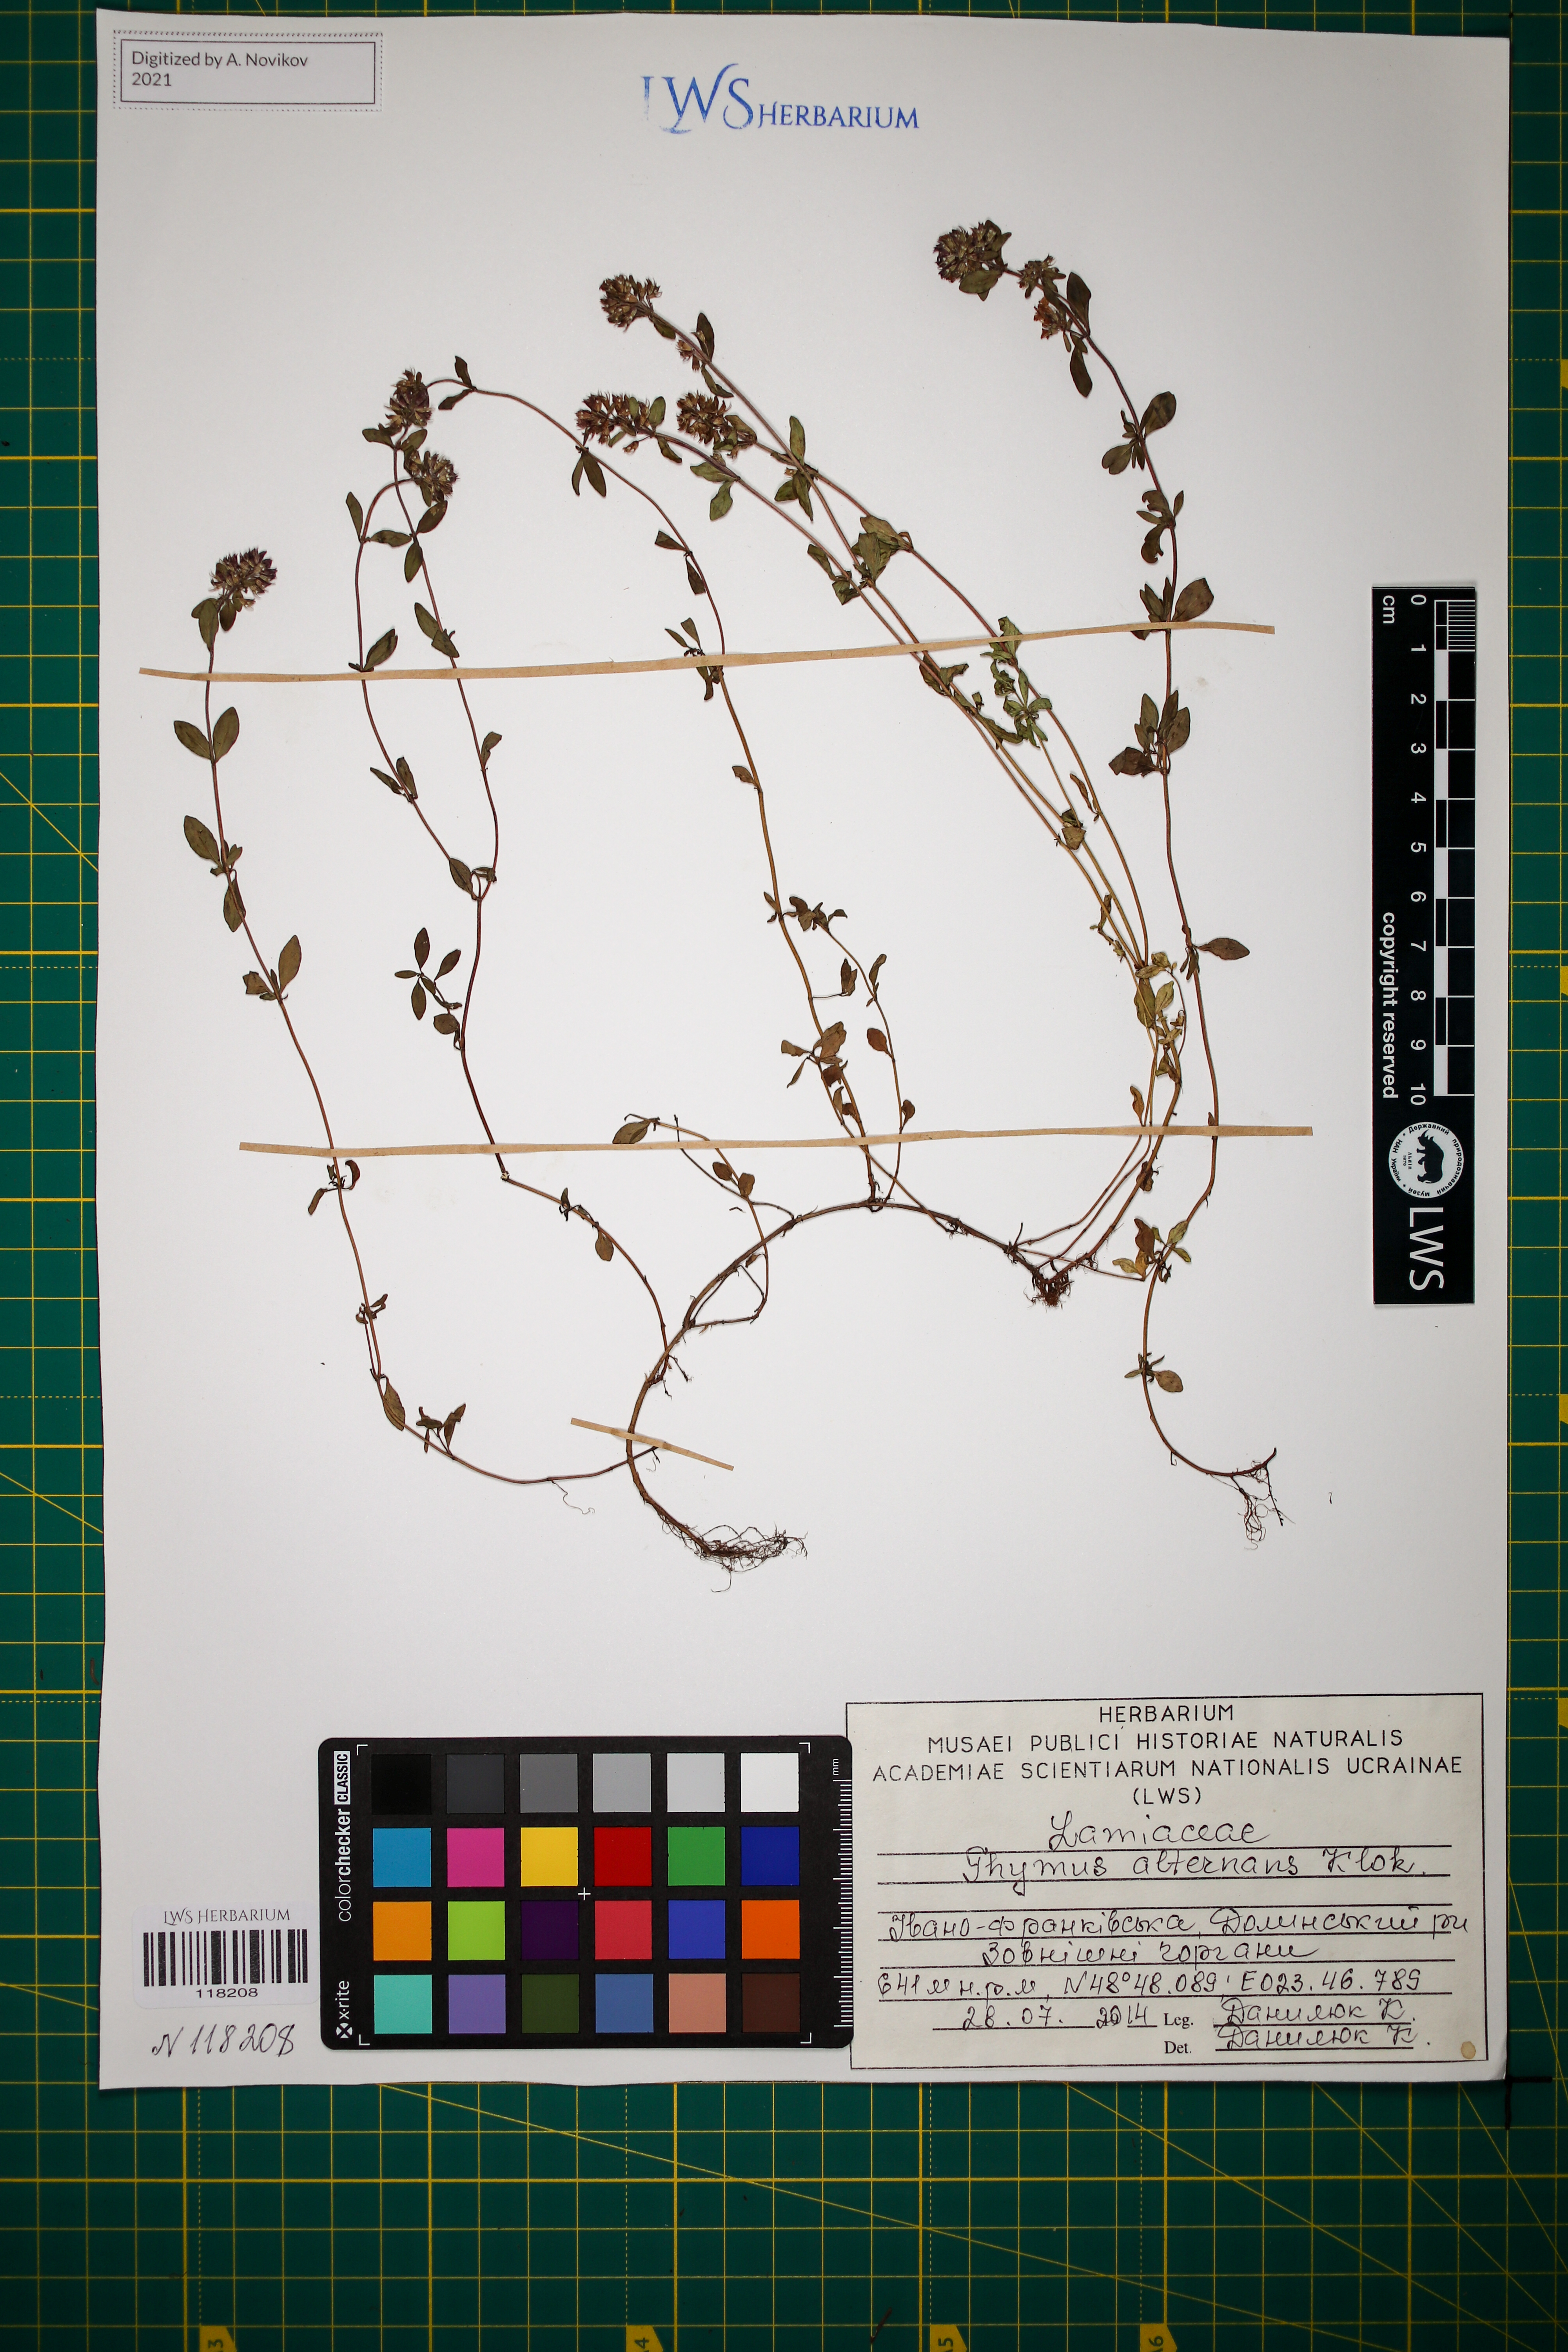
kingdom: Plantae
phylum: Tracheophyta
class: Magnoliopsida
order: Lamiales
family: Lamiaceae
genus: Thymus
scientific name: Thymus alternans
